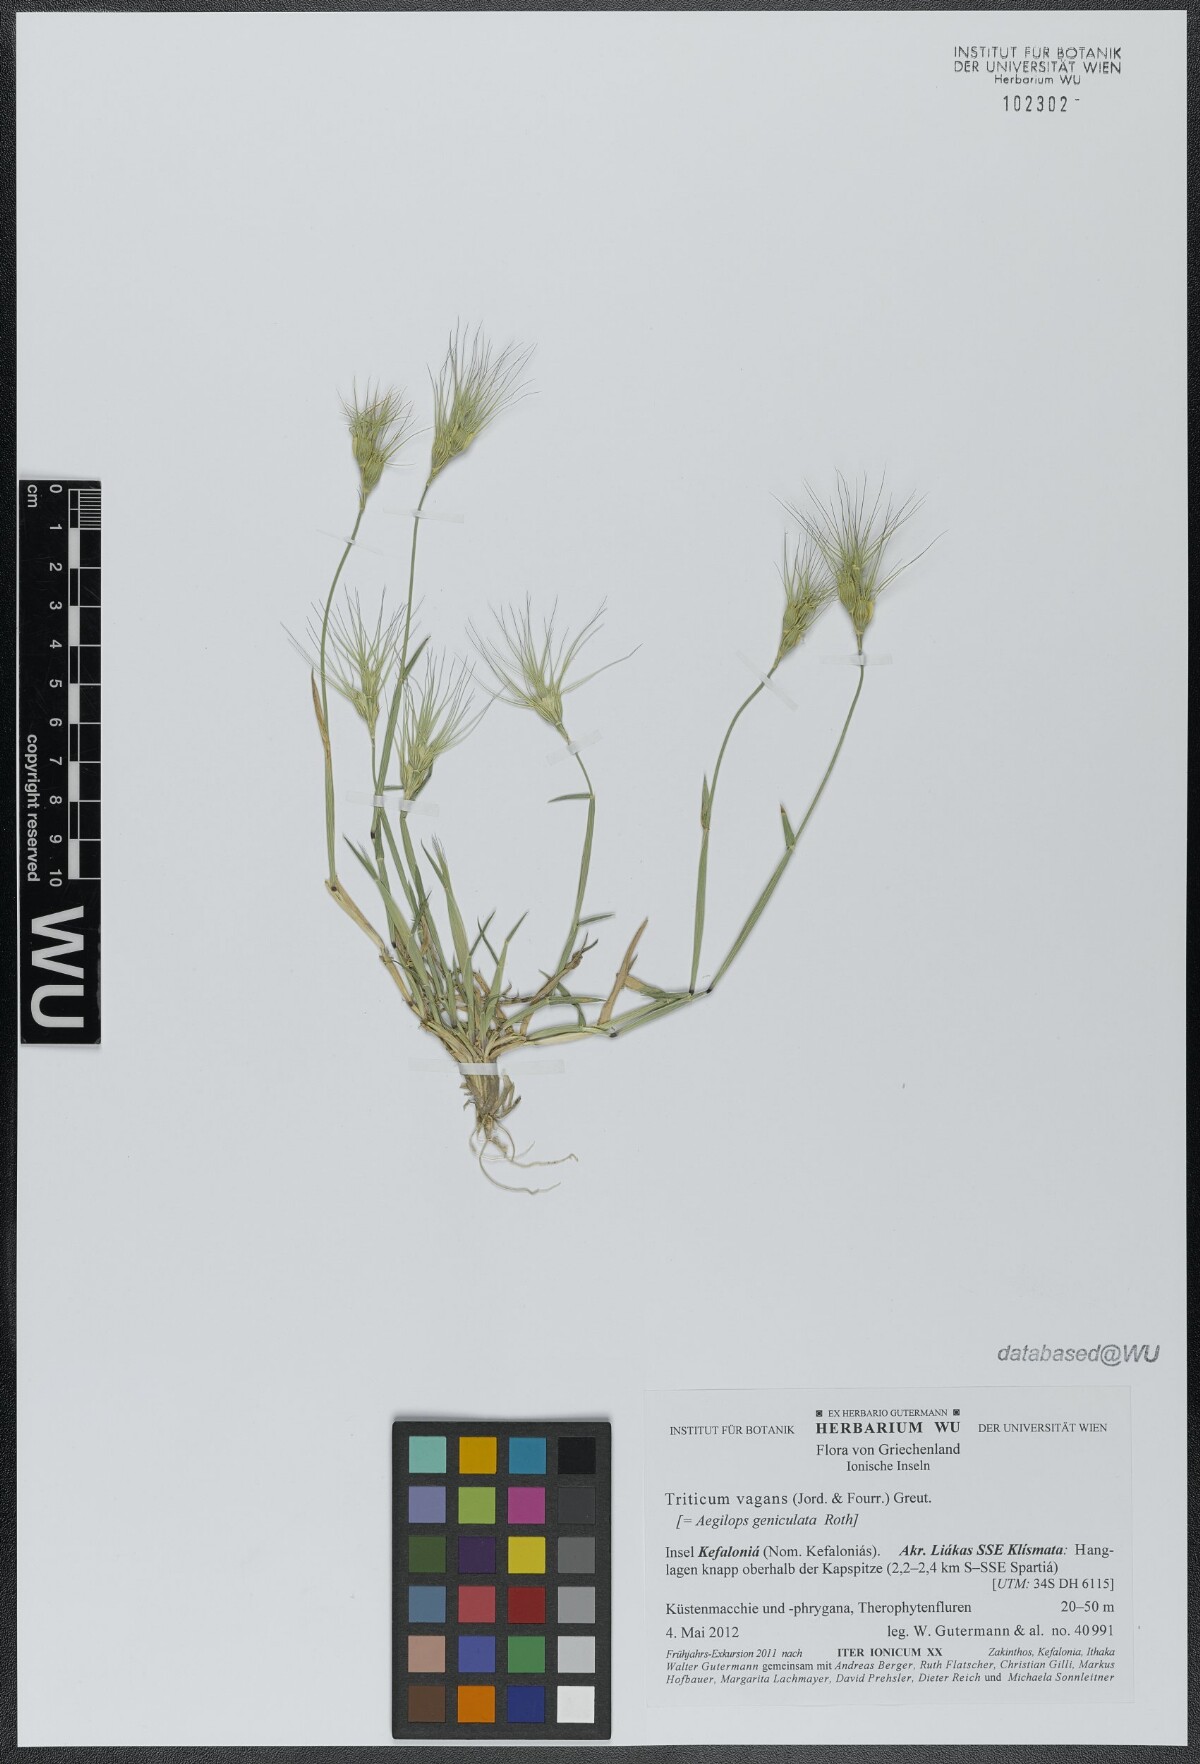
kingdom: Plantae
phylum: Tracheophyta
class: Liliopsida
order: Poales
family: Poaceae
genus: Aegilops
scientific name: Aegilops geniculata
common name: Ovate goat grass
